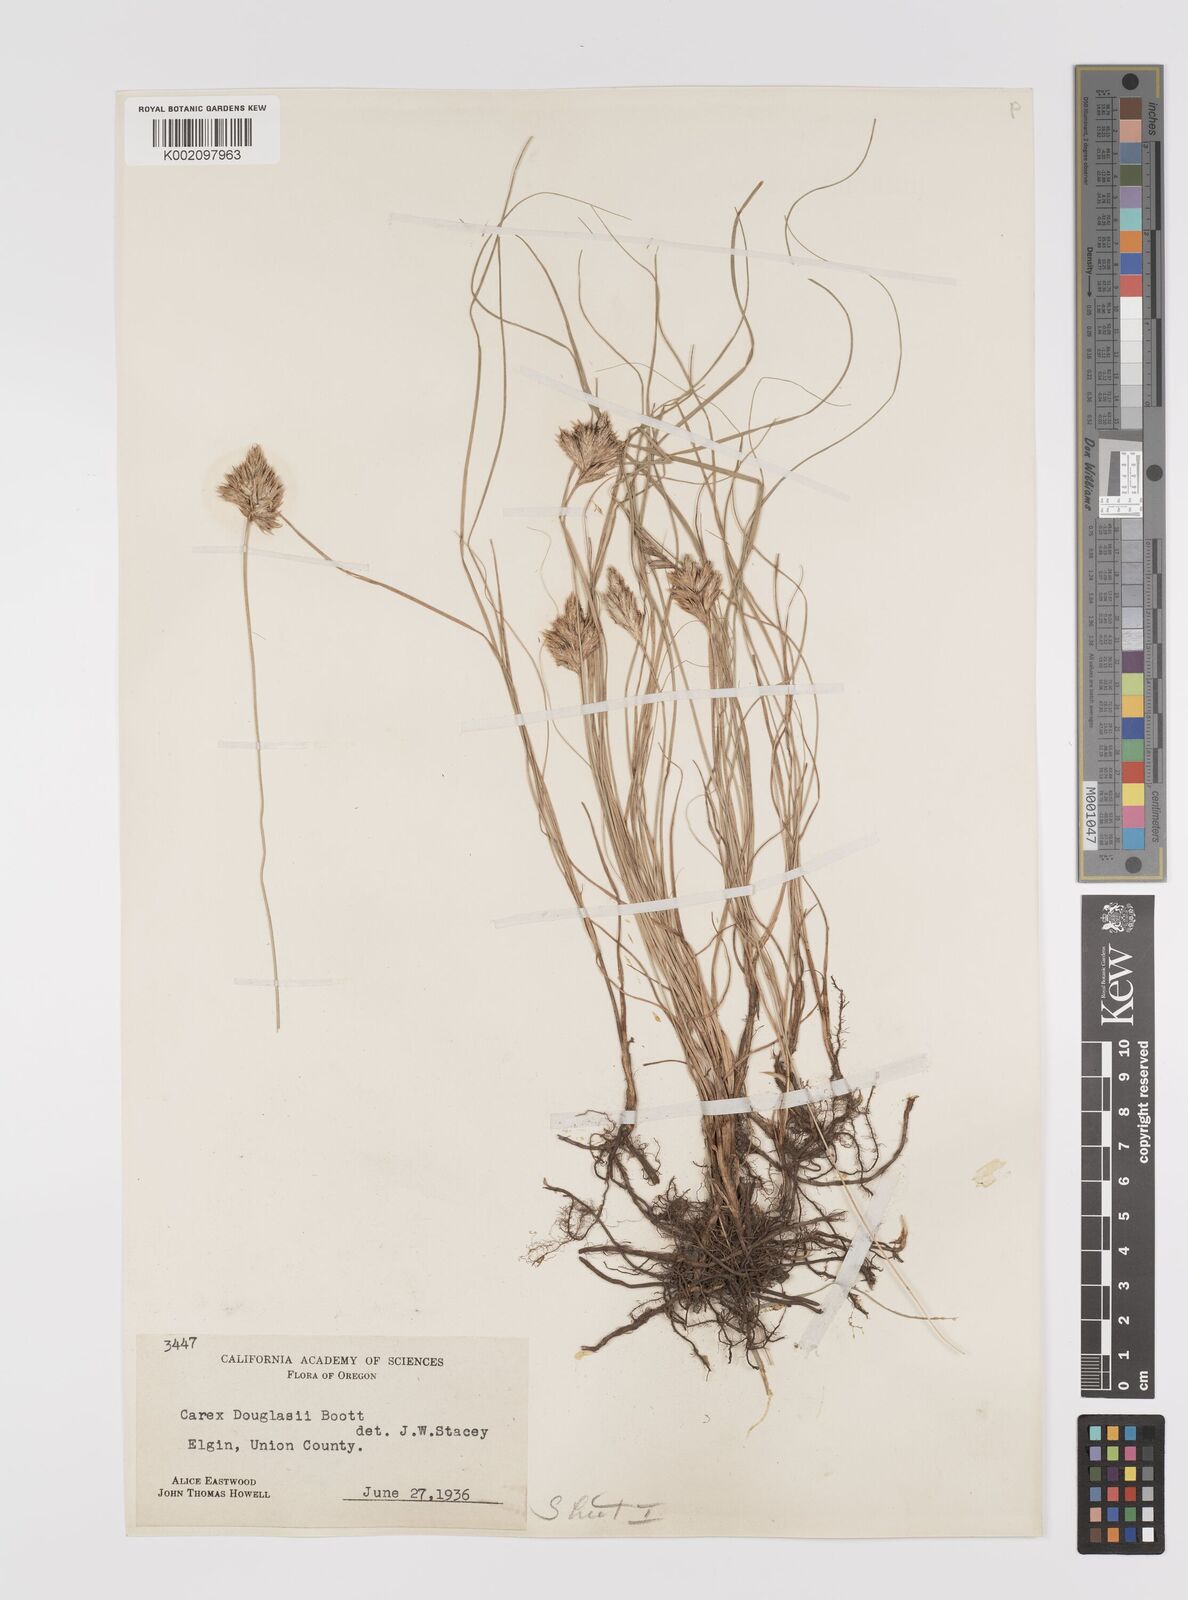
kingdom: Plantae
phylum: Tracheophyta
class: Liliopsida
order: Poales
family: Cyperaceae
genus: Carex
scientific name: Carex douglasii
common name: Douglas' sedge
